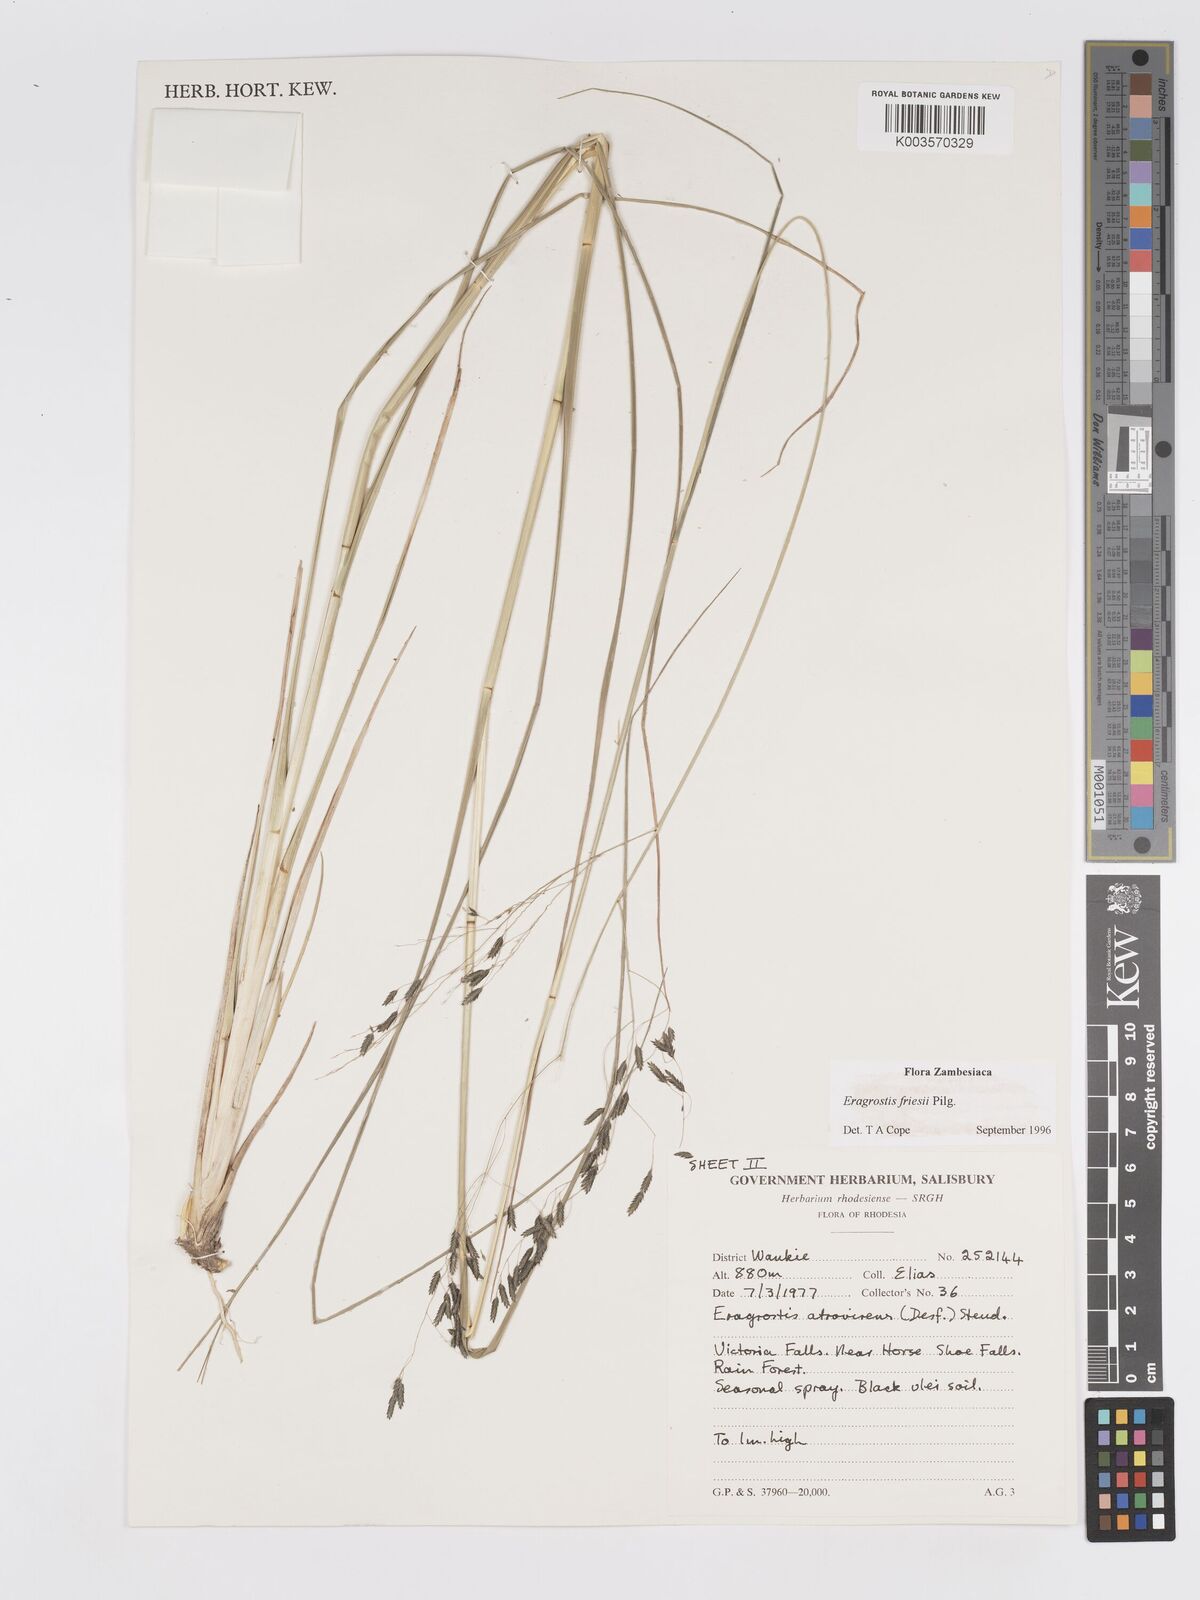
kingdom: Plantae
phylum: Tracheophyta
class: Liliopsida
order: Poales
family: Poaceae
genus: Eragrostis
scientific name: Eragrostis friesii
